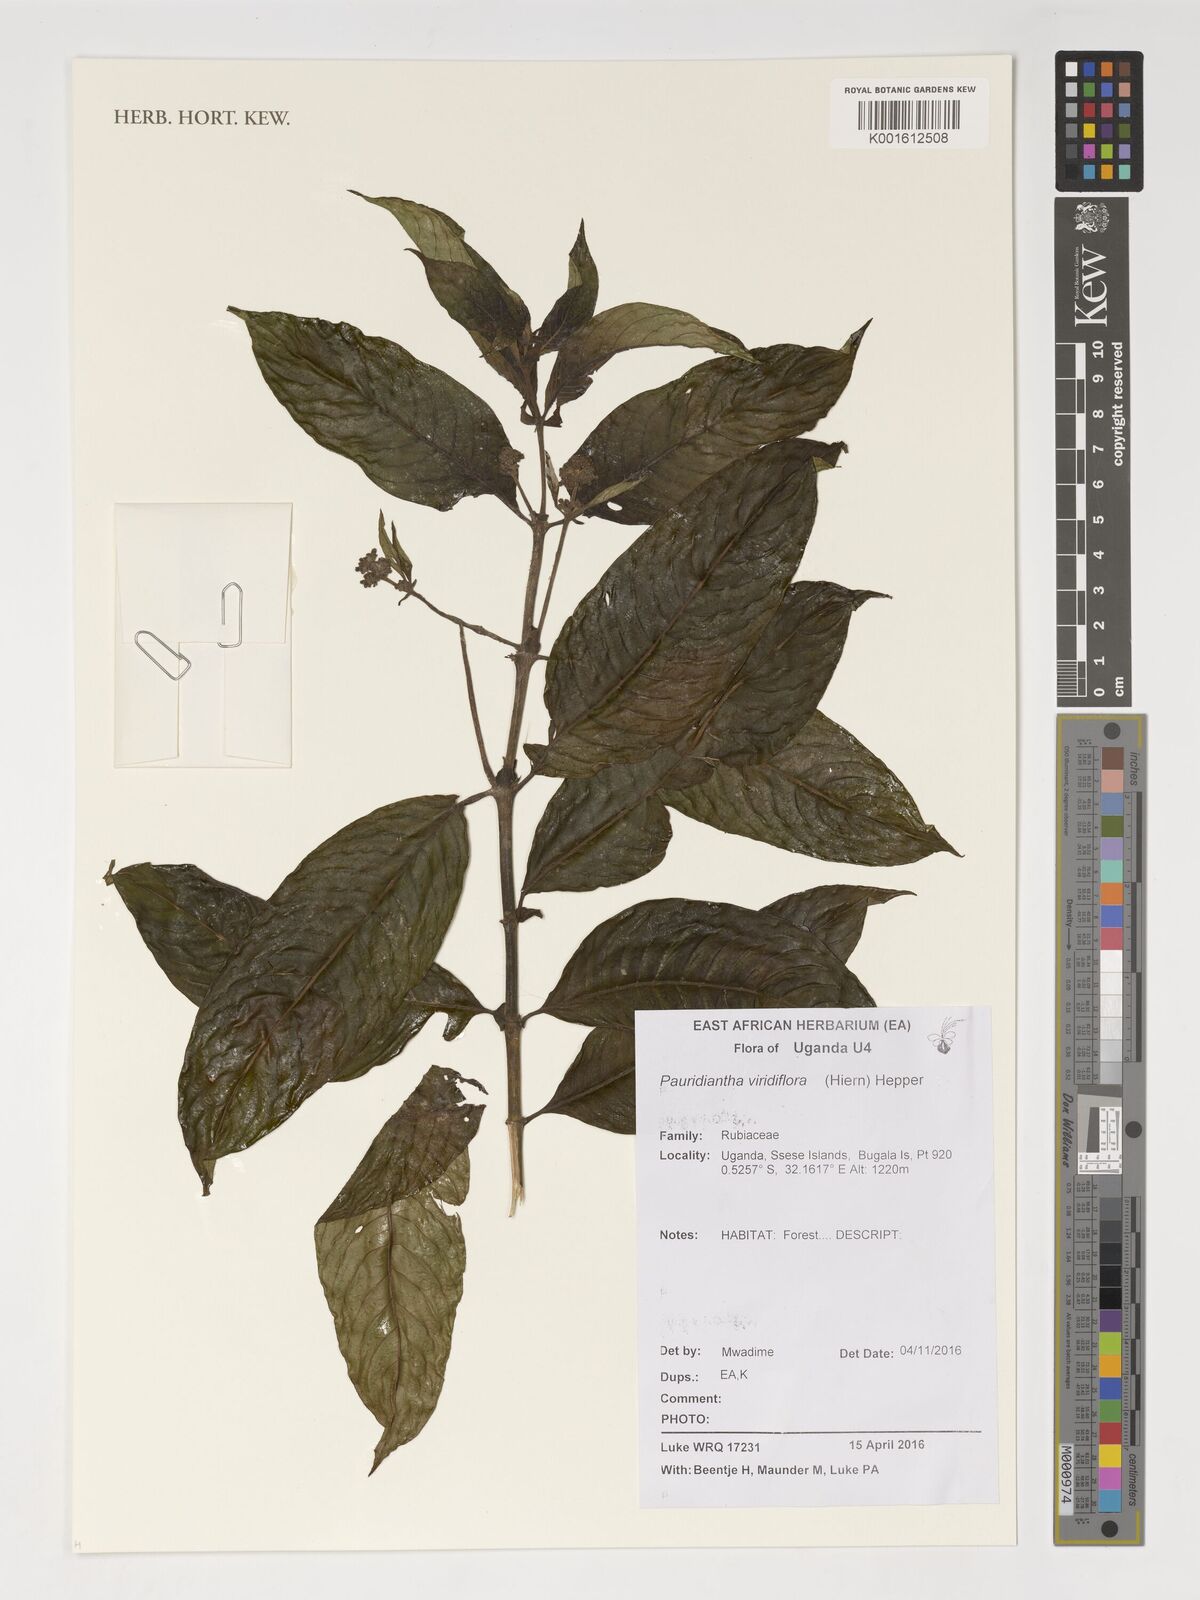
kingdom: Plantae
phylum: Tracheophyta
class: Magnoliopsida
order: Gentianales
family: Rubiaceae
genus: Pauridiantha
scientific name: Pauridiantha viridiflora
